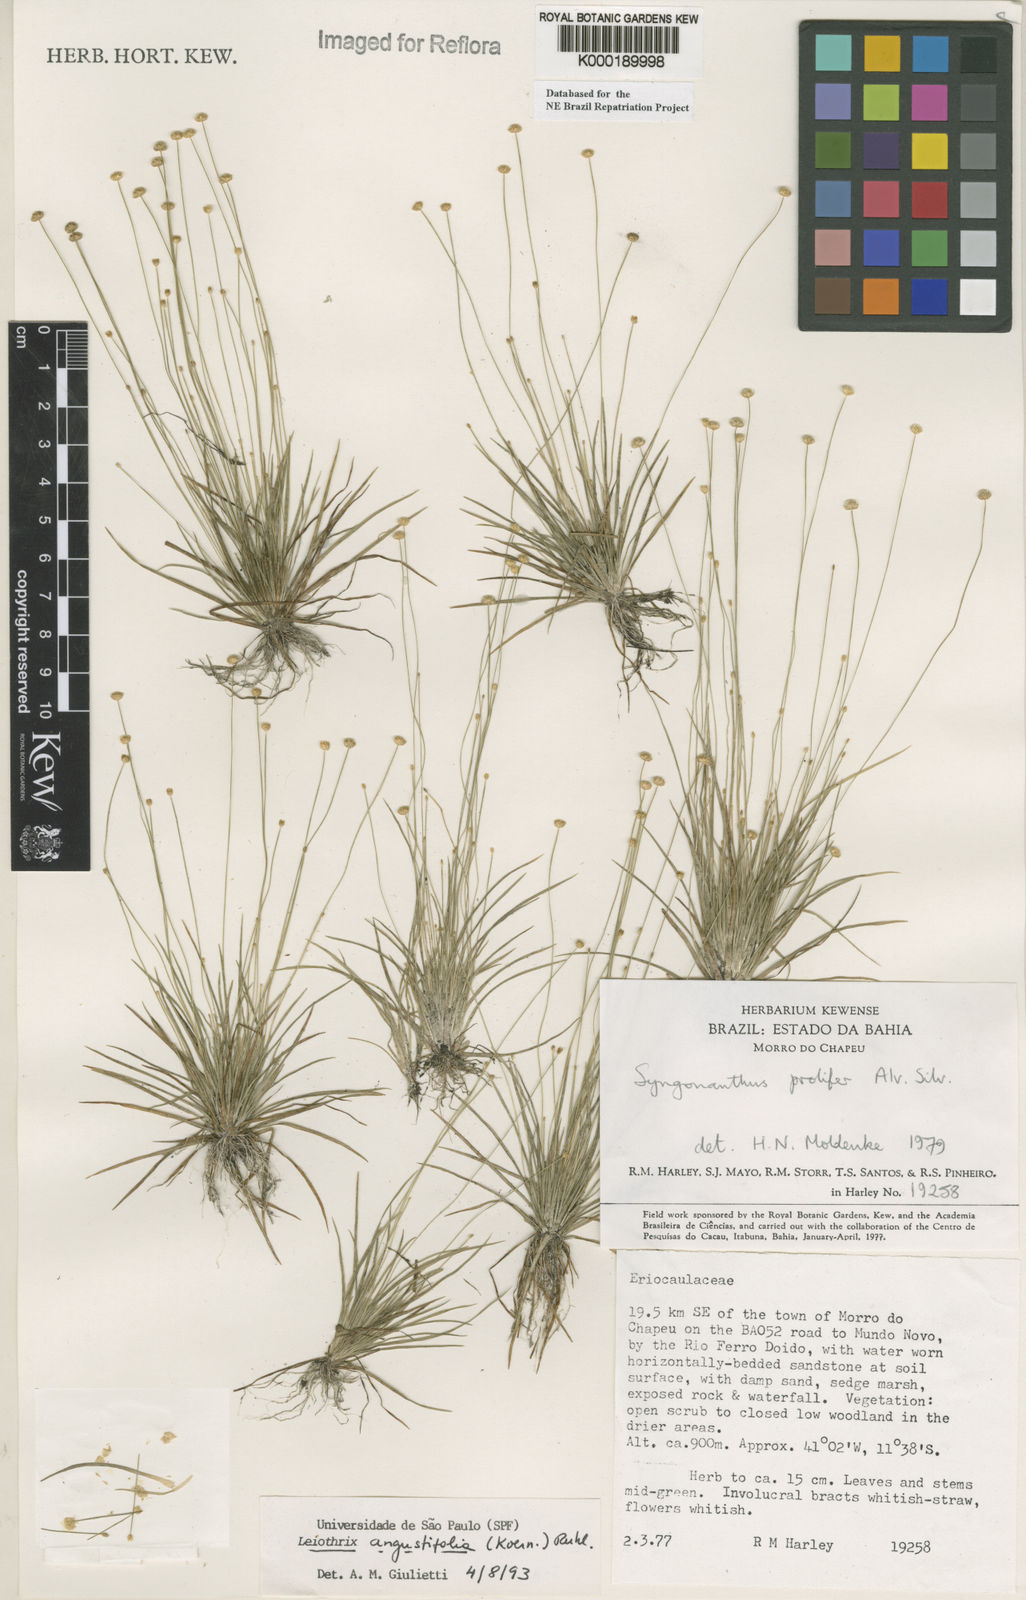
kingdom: Plantae
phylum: Tracheophyta
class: Liliopsida
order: Poales
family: Eriocaulaceae
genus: Leiothrix
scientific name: Leiothrix angustifolia
